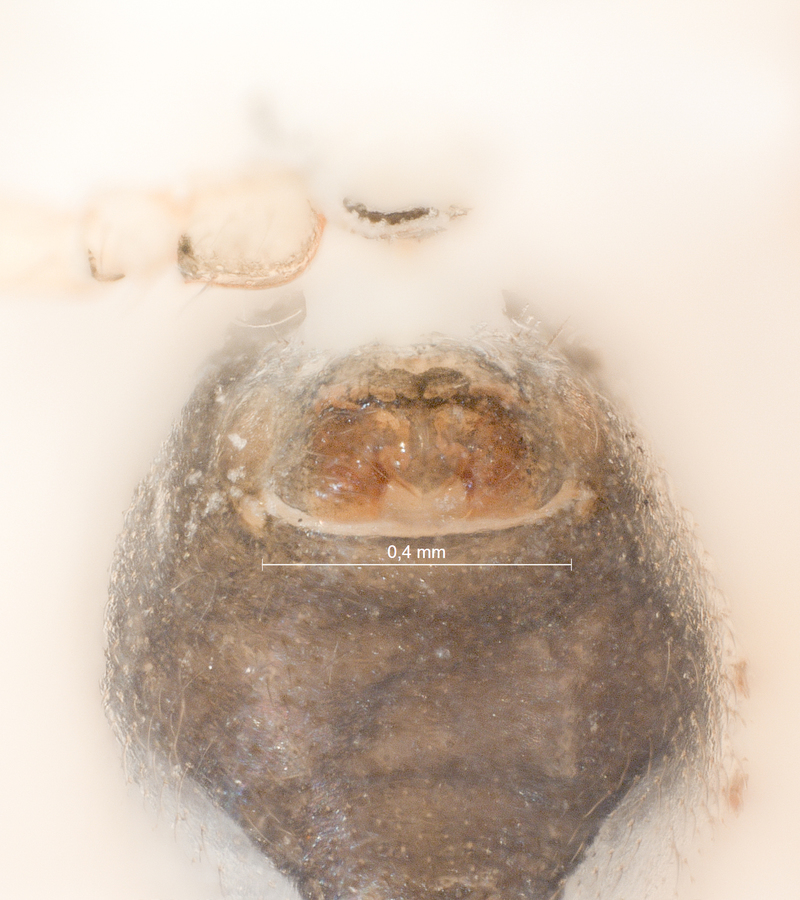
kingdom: Animalia
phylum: Arthropoda
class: Arachnida
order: Araneae
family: Linyphiidae
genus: Styloctetor
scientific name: Styloctetor romanus
